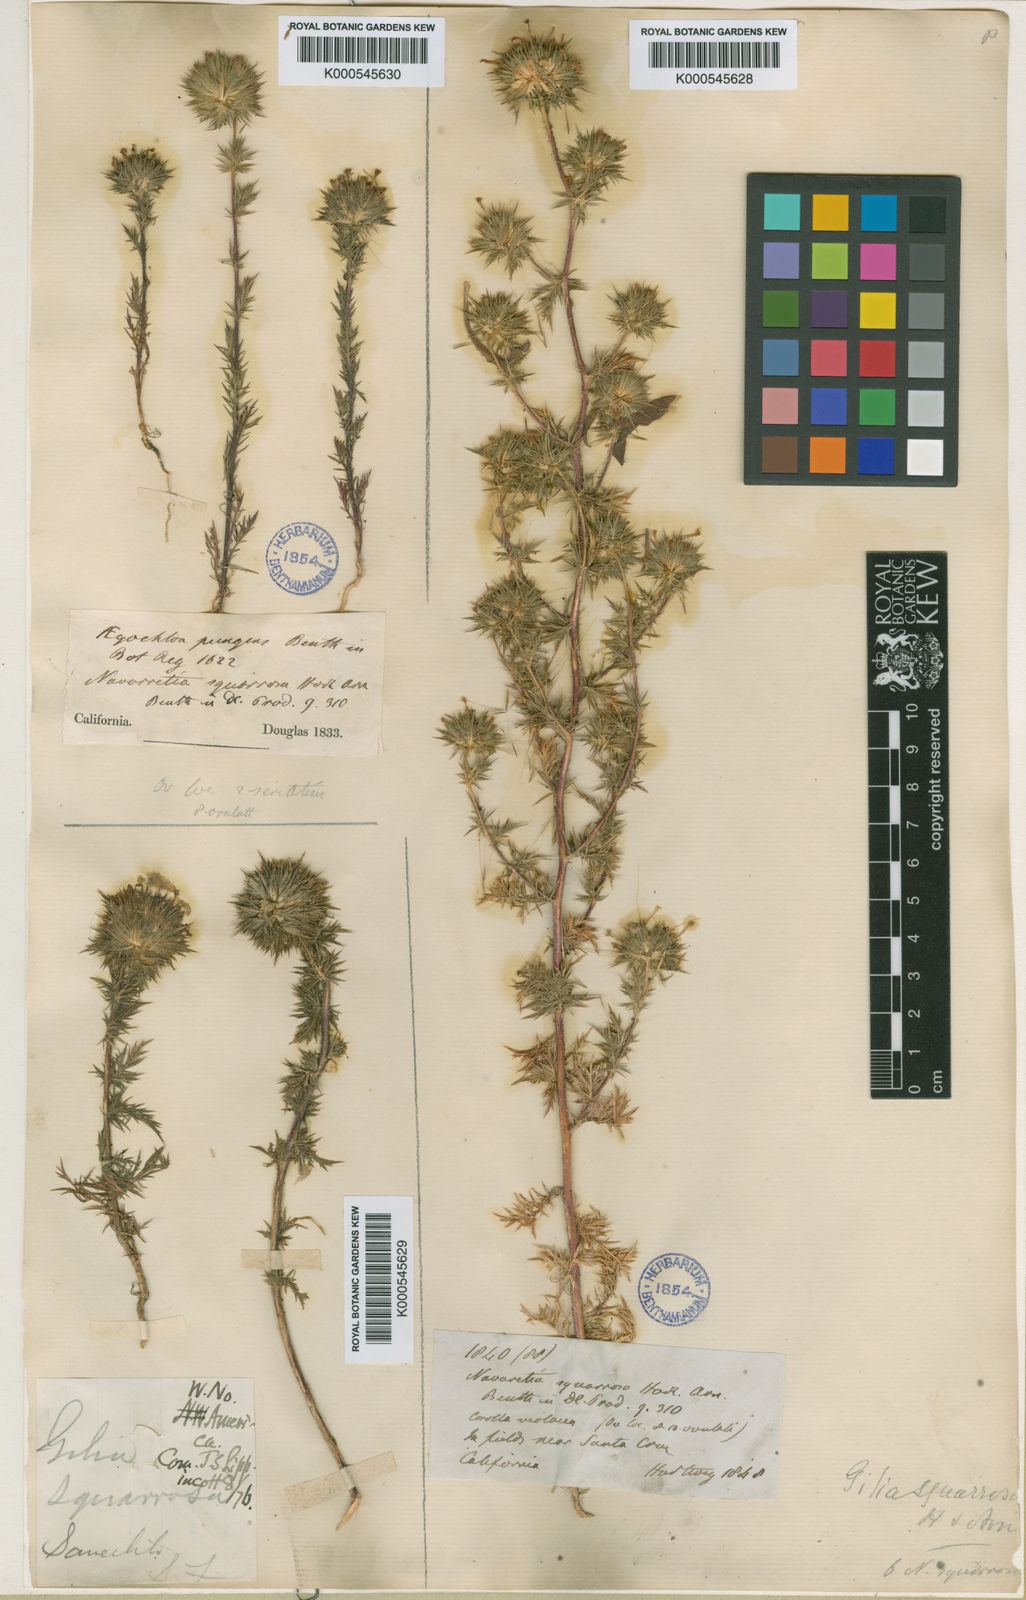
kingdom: Plantae
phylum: Tracheophyta
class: Magnoliopsida
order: Ericales
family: Polemoniaceae
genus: Navarretia
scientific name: Navarretia squarrosa
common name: Skunkweed
